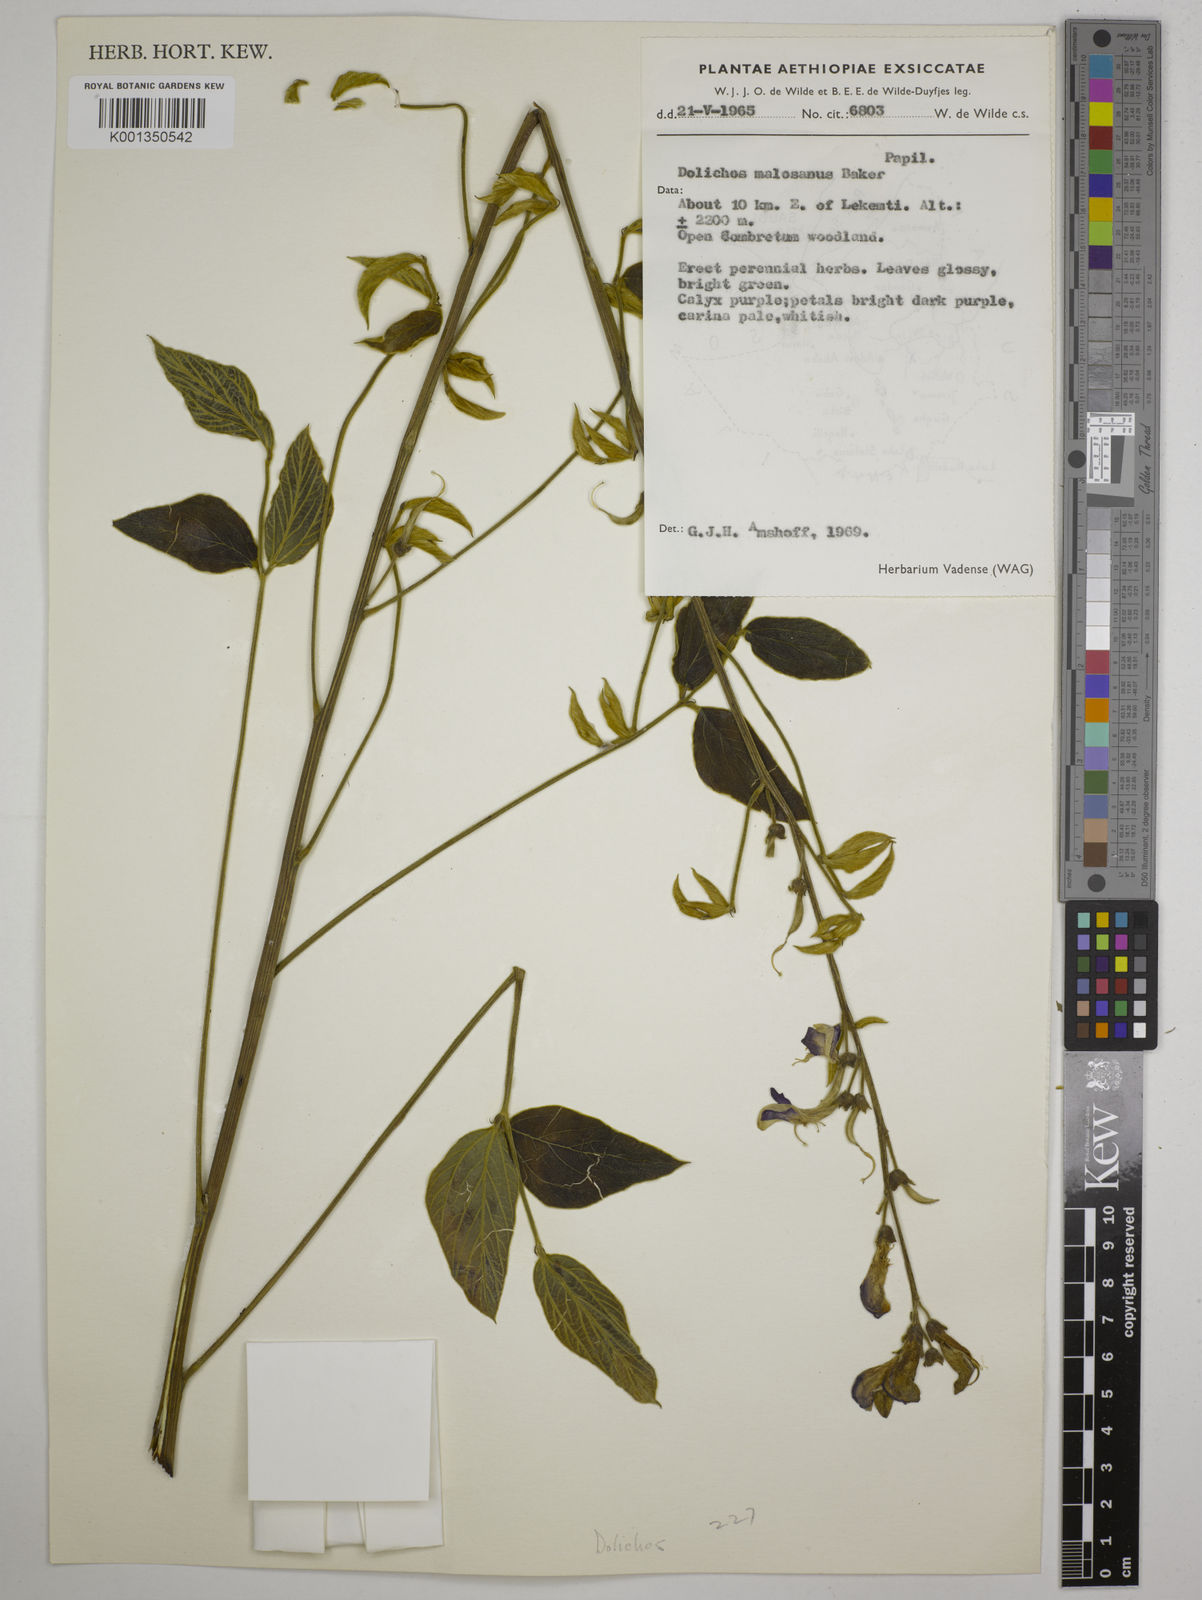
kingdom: Plantae
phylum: Tracheophyta
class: Magnoliopsida
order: Fabales
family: Fabaceae
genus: Dolichos
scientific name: Dolichos kilimandscharicus
